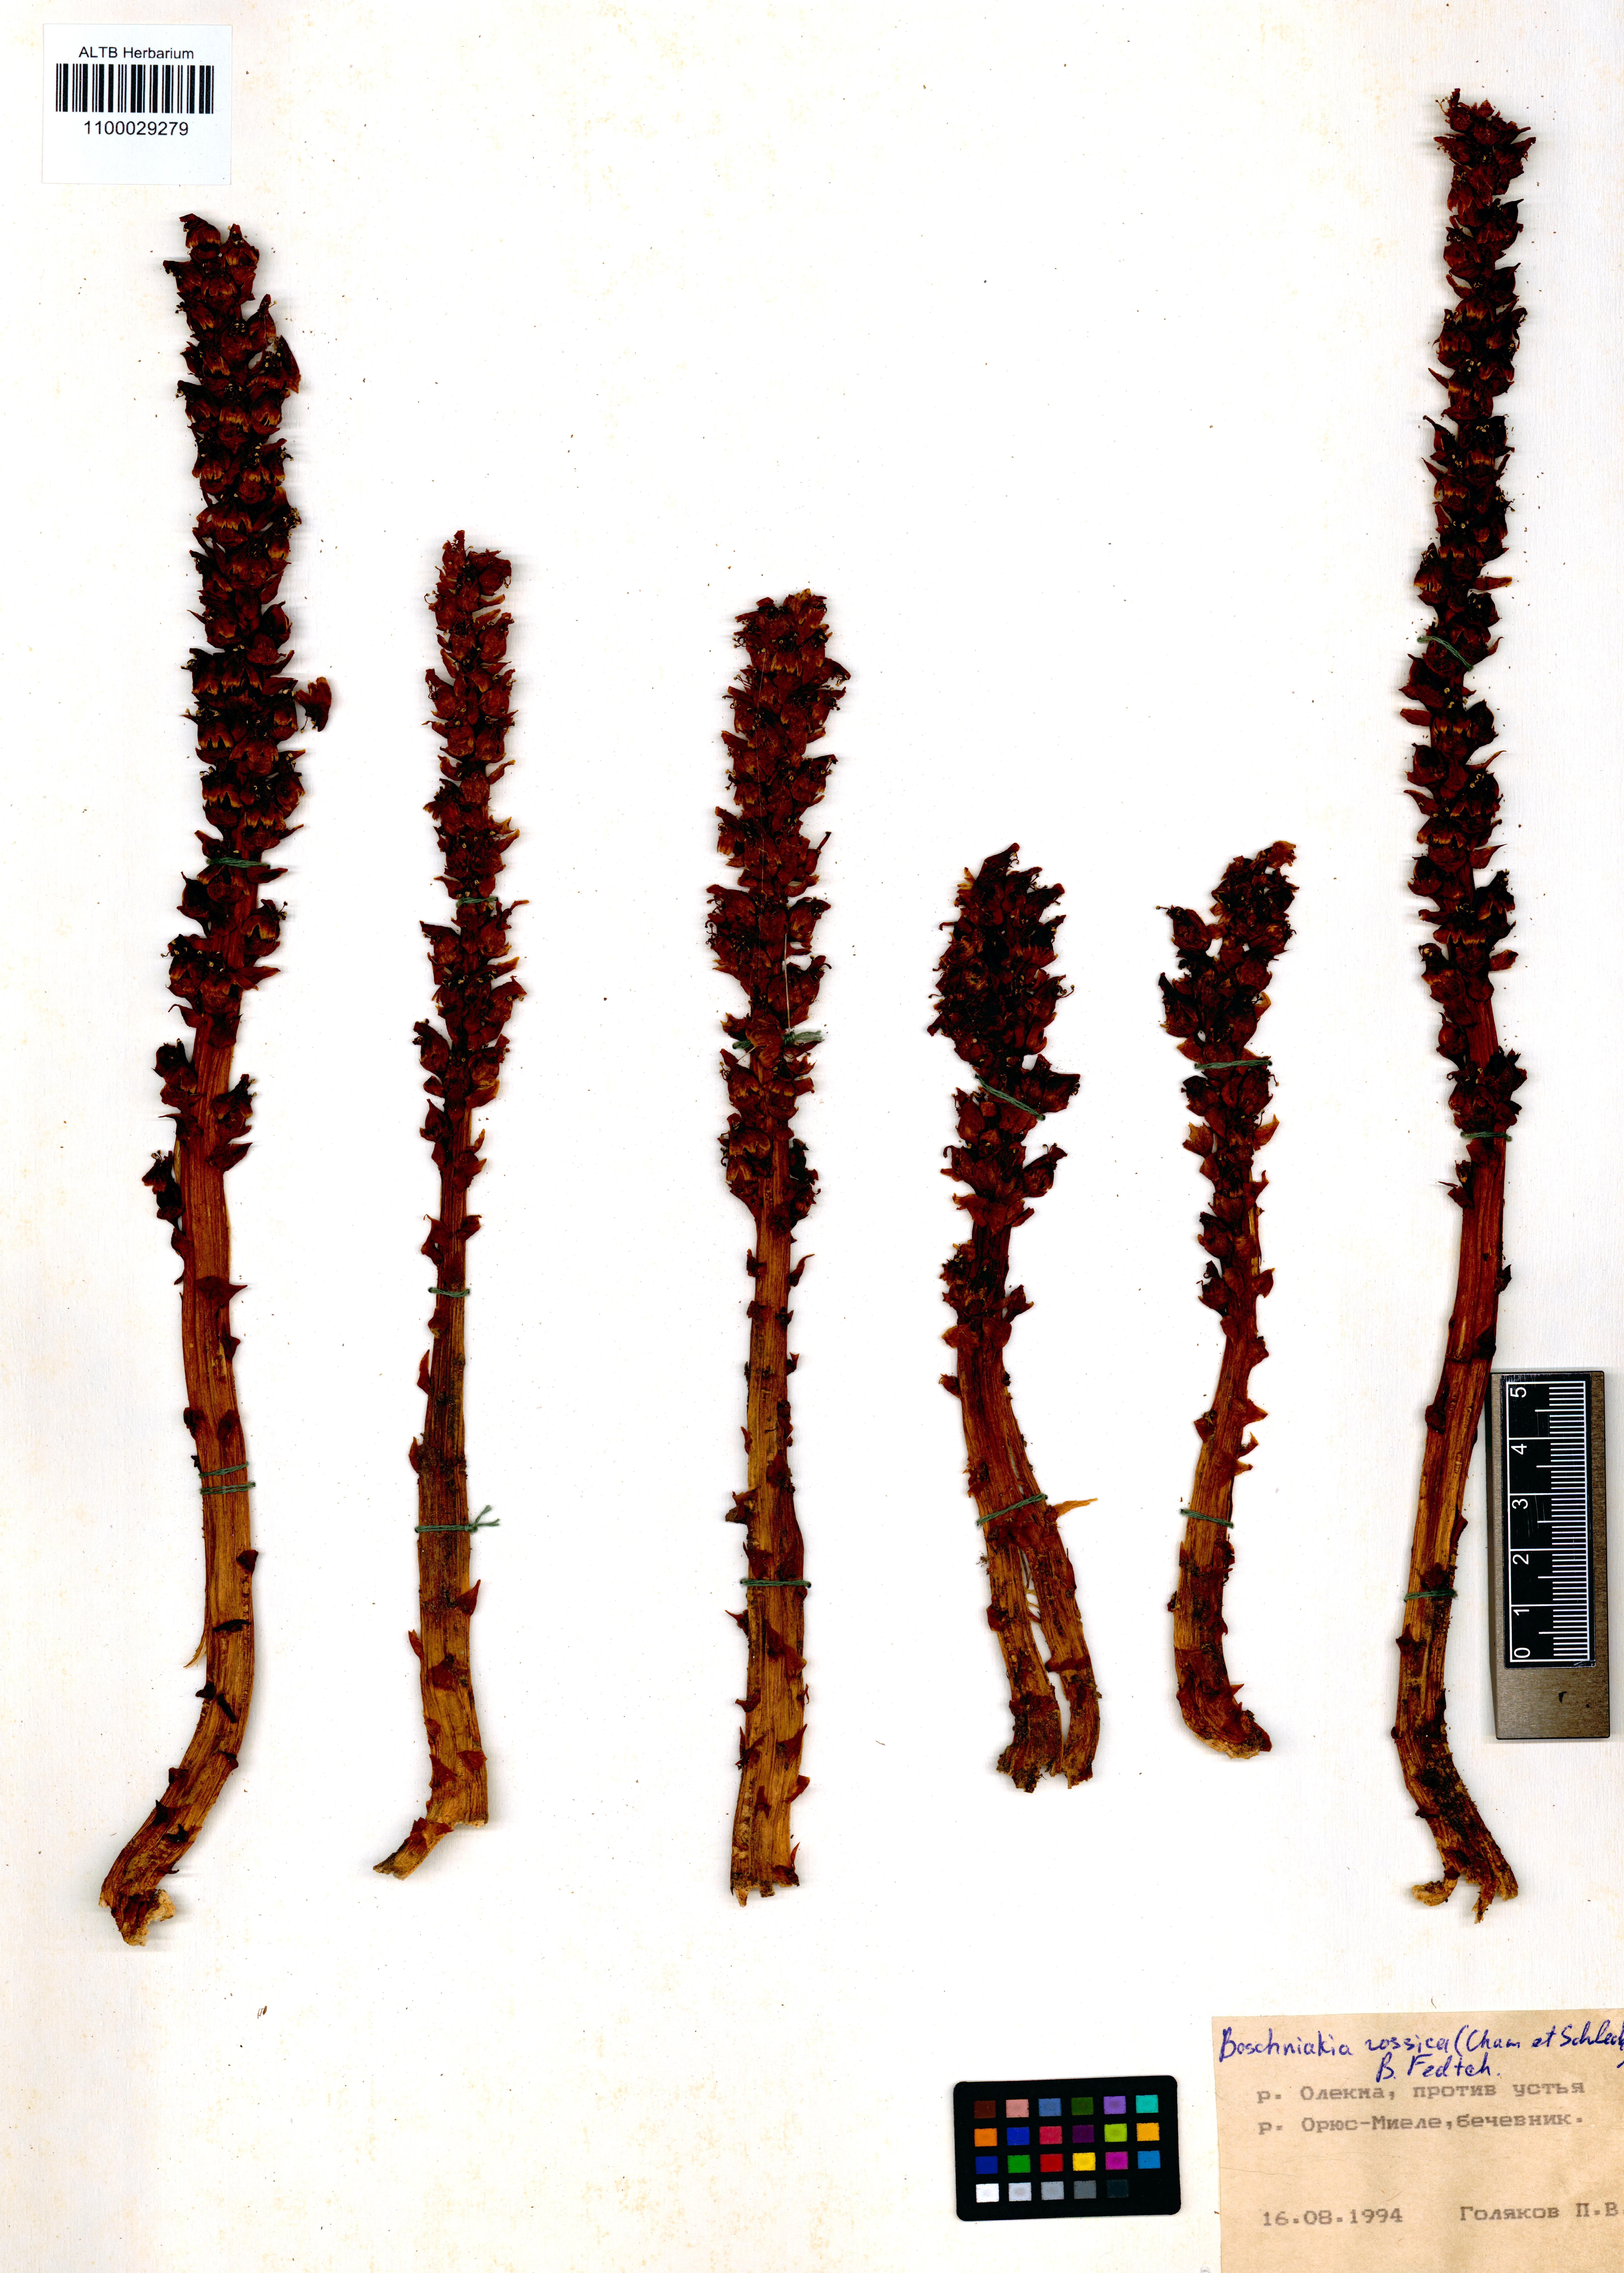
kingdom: Plantae
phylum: Tracheophyta
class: Magnoliopsida
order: Lamiales
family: Orobanchaceae
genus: Boschniakia
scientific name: Boschniakia rossica
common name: Poque
